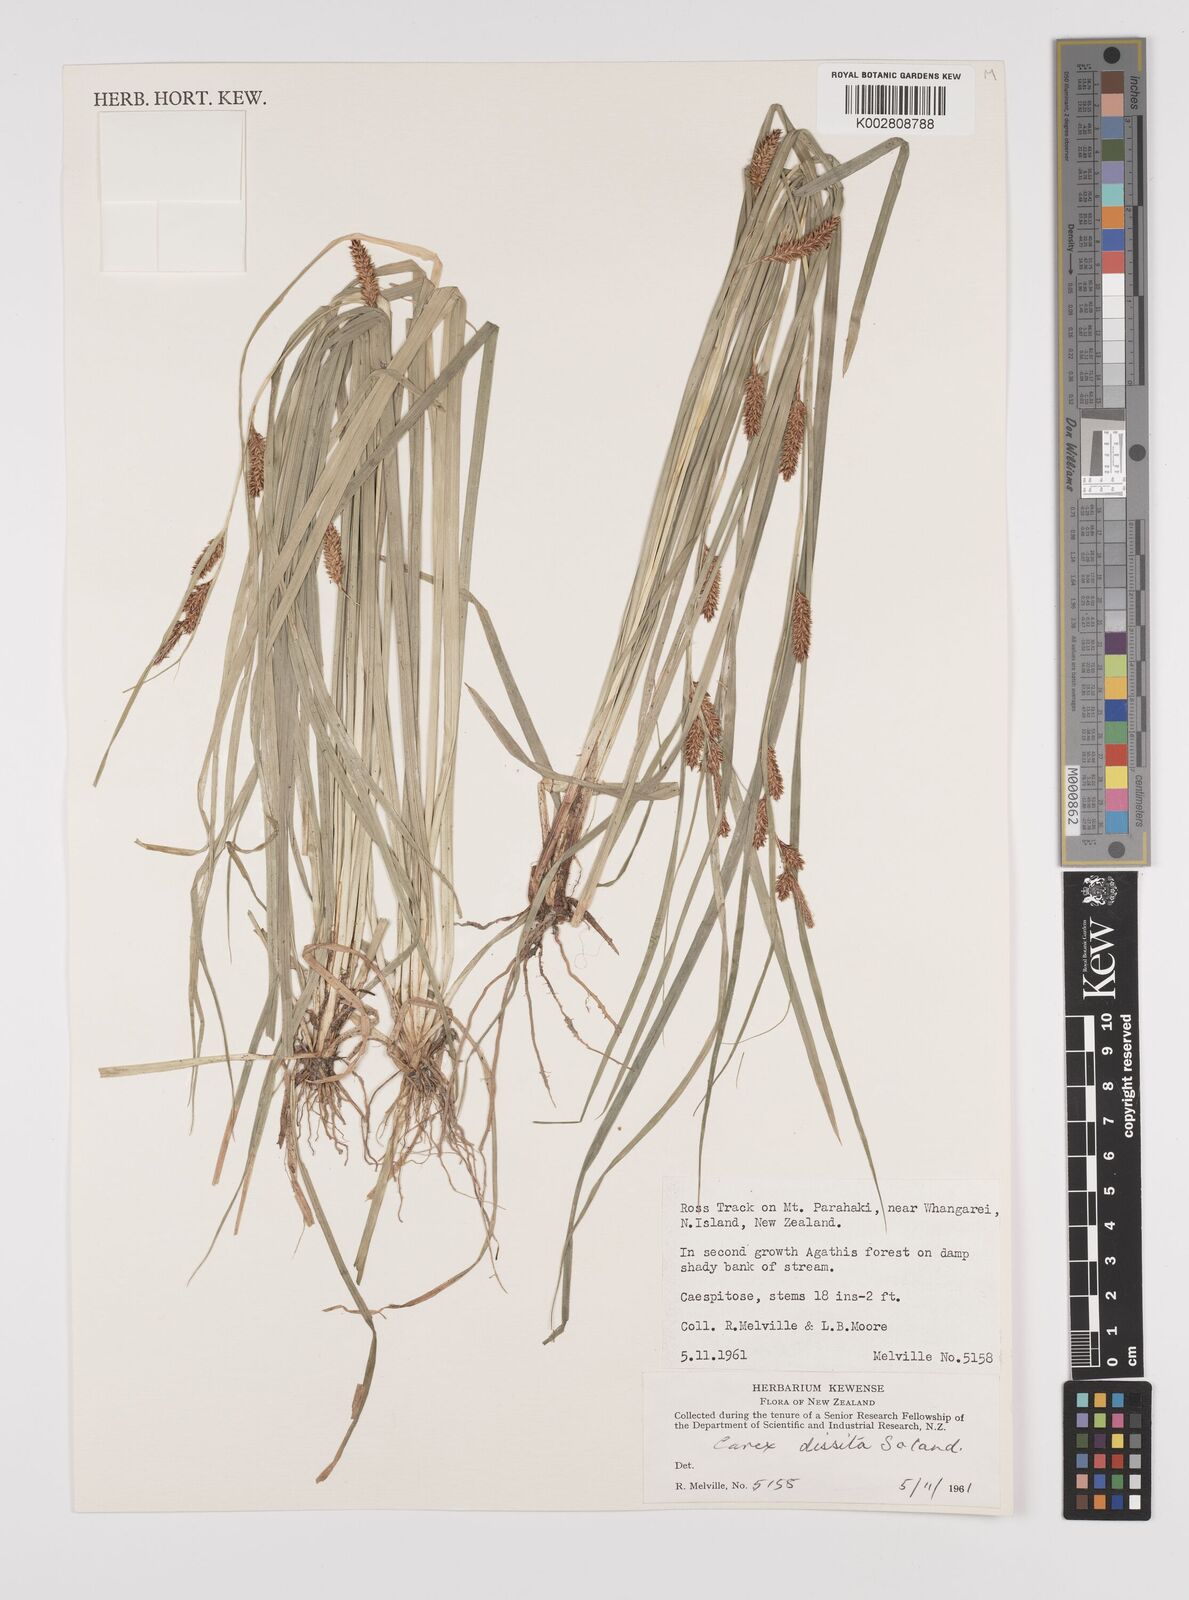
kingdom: Plantae
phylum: Tracheophyta
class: Liliopsida
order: Poales
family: Cyperaceae
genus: Carex
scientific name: Carex dissita
